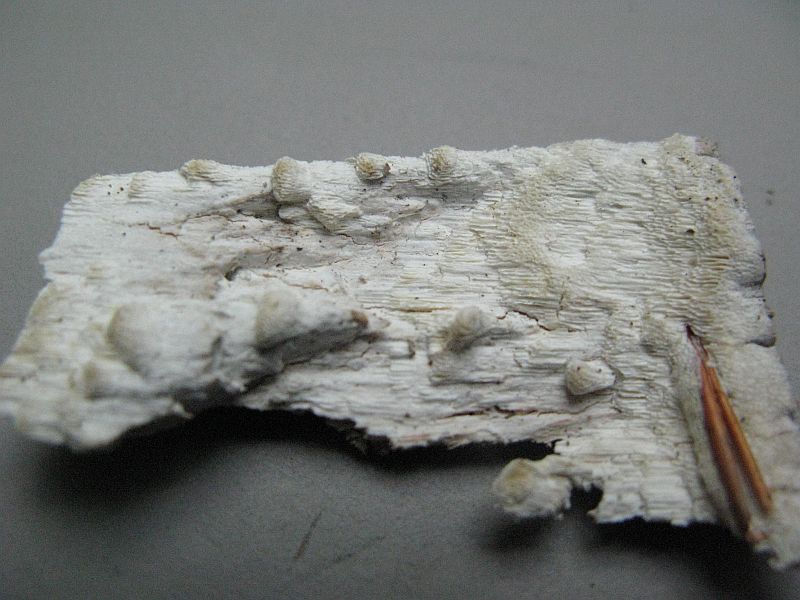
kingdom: Fungi
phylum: Basidiomycota
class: Agaricomycetes
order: Polyporales
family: Fomitopsidaceae
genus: Daedalea
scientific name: Daedalea xantha
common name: gul sejporesvamp
